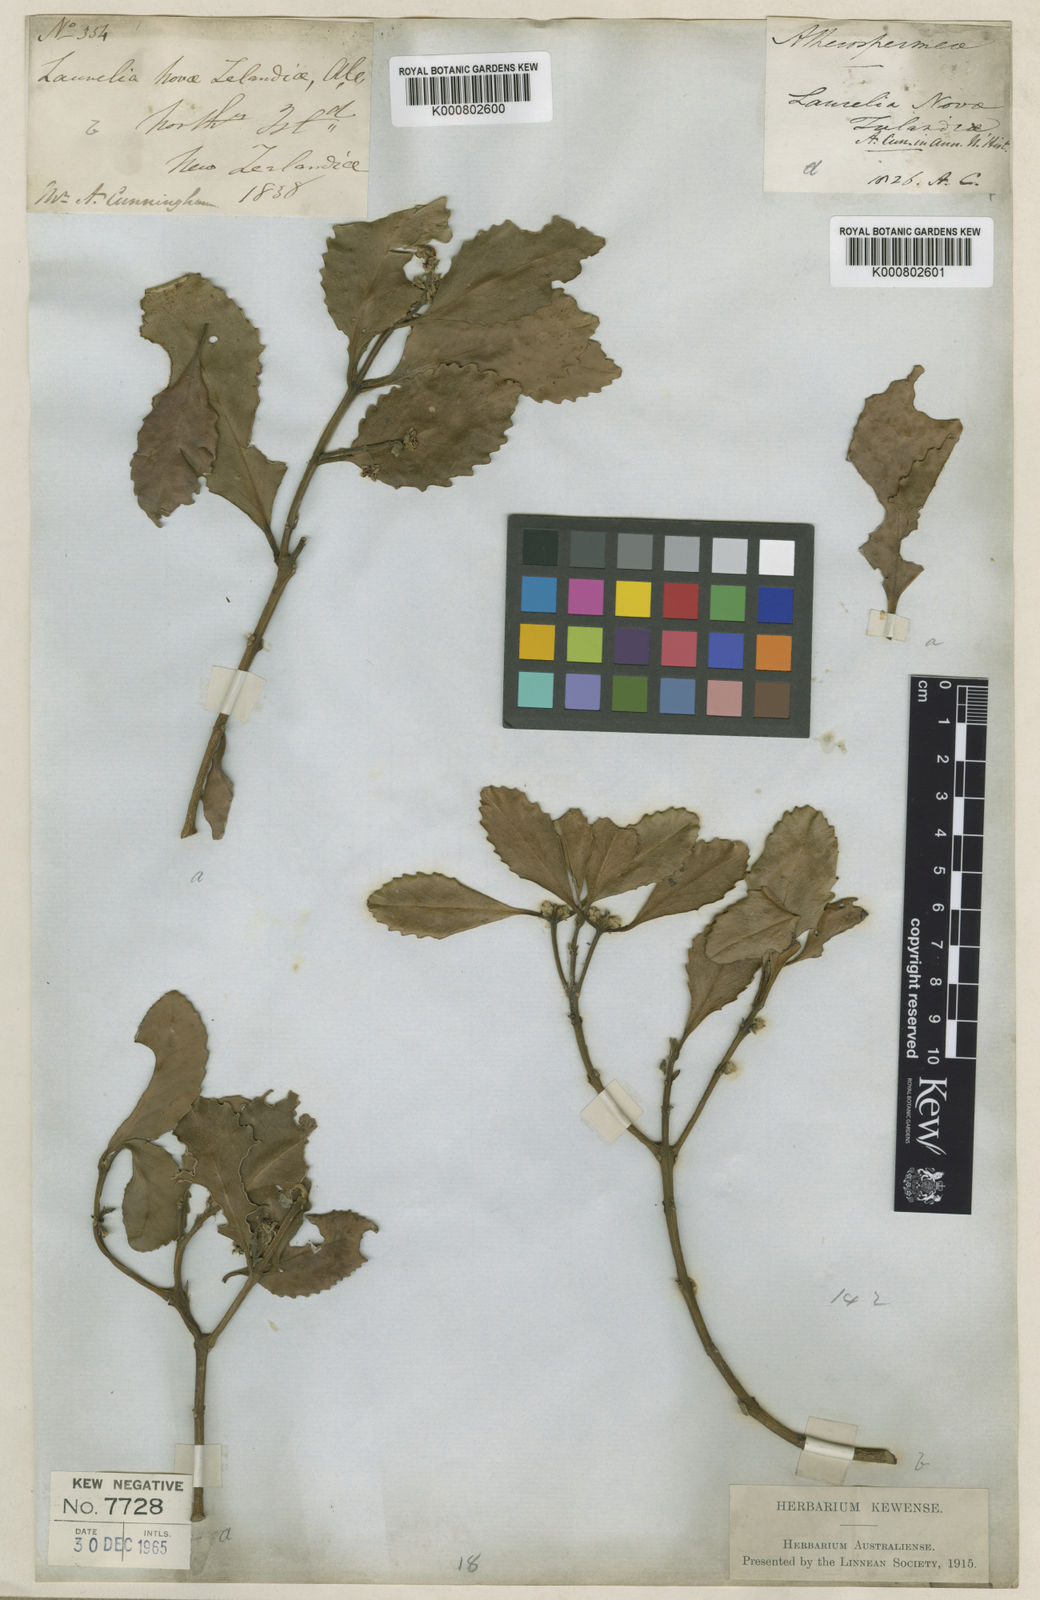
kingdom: Plantae
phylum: Tracheophyta
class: Magnoliopsida
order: Laurales
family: Atherospermataceae
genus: Laurelia
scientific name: Laurelia novae-zelandiae
